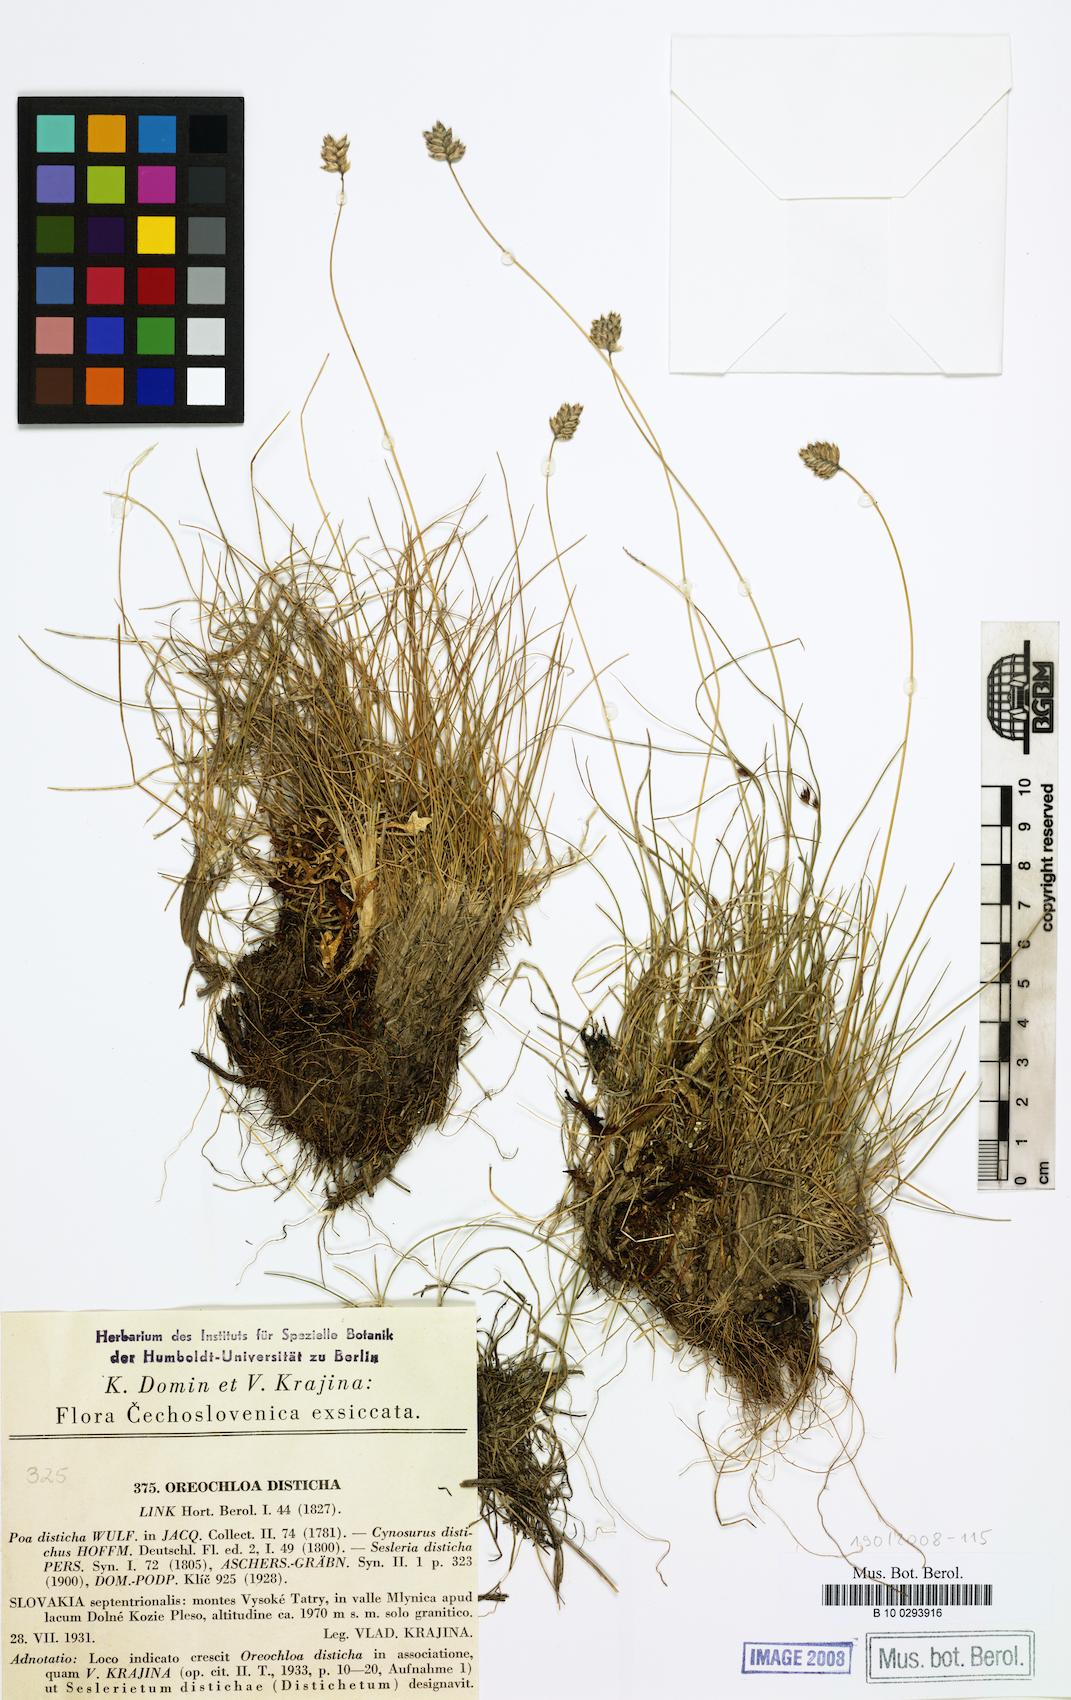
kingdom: Plantae
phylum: Tracheophyta
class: Liliopsida
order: Poales
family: Poaceae
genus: Oreochloa
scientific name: Oreochloa disticha
